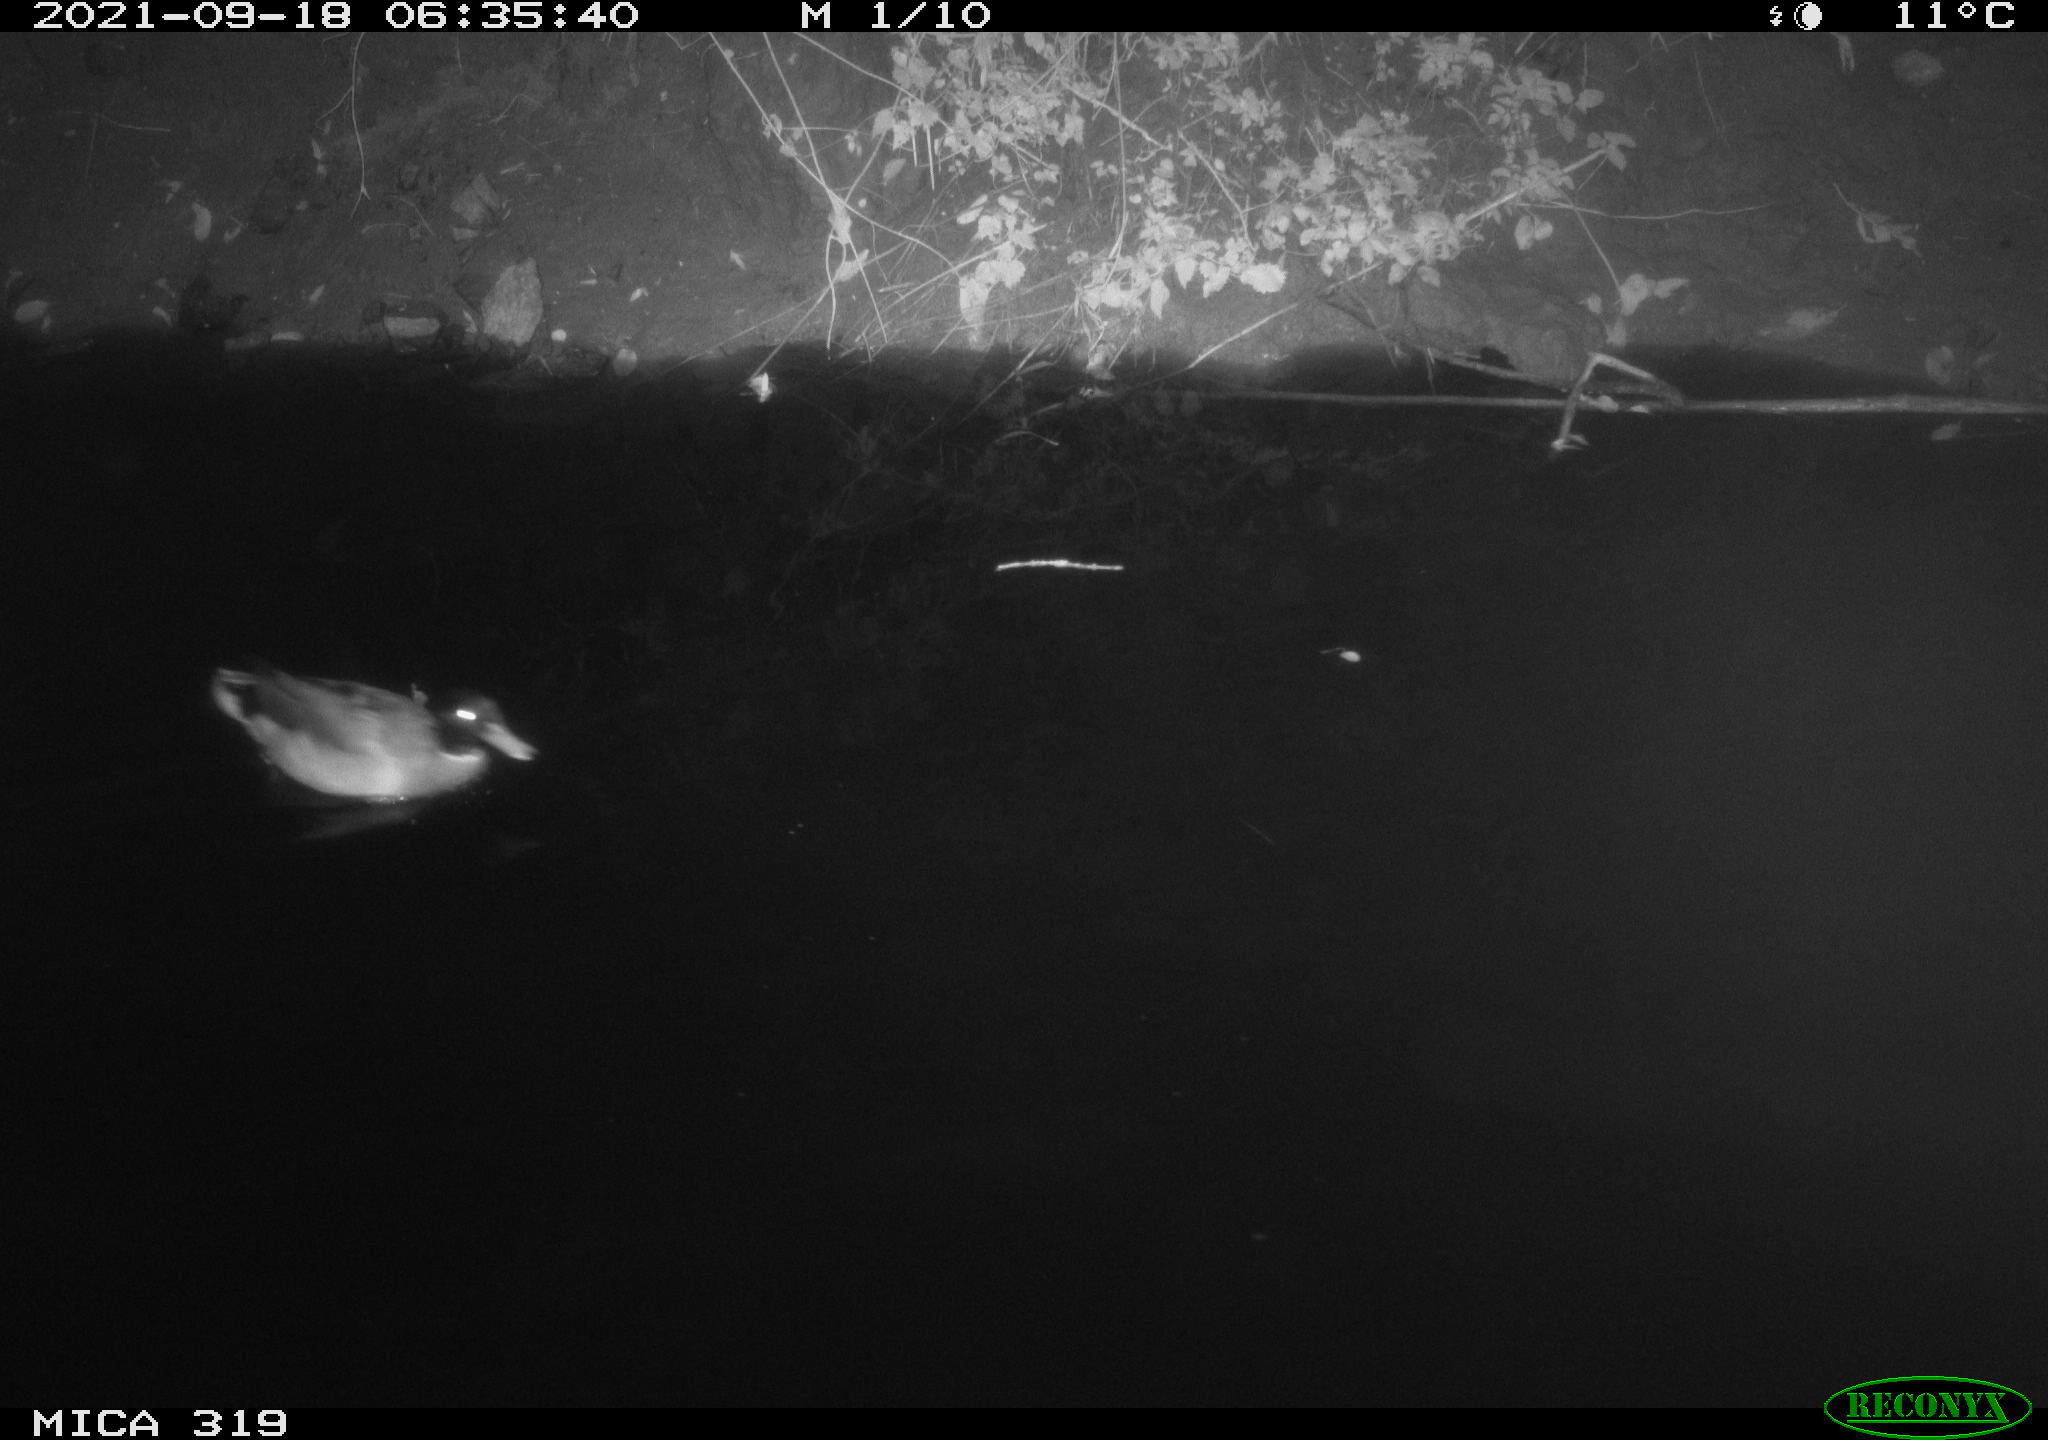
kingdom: Animalia
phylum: Chordata
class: Aves
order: Anseriformes
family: Anatidae
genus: Anas
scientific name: Anas platyrhynchos
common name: Mallard
